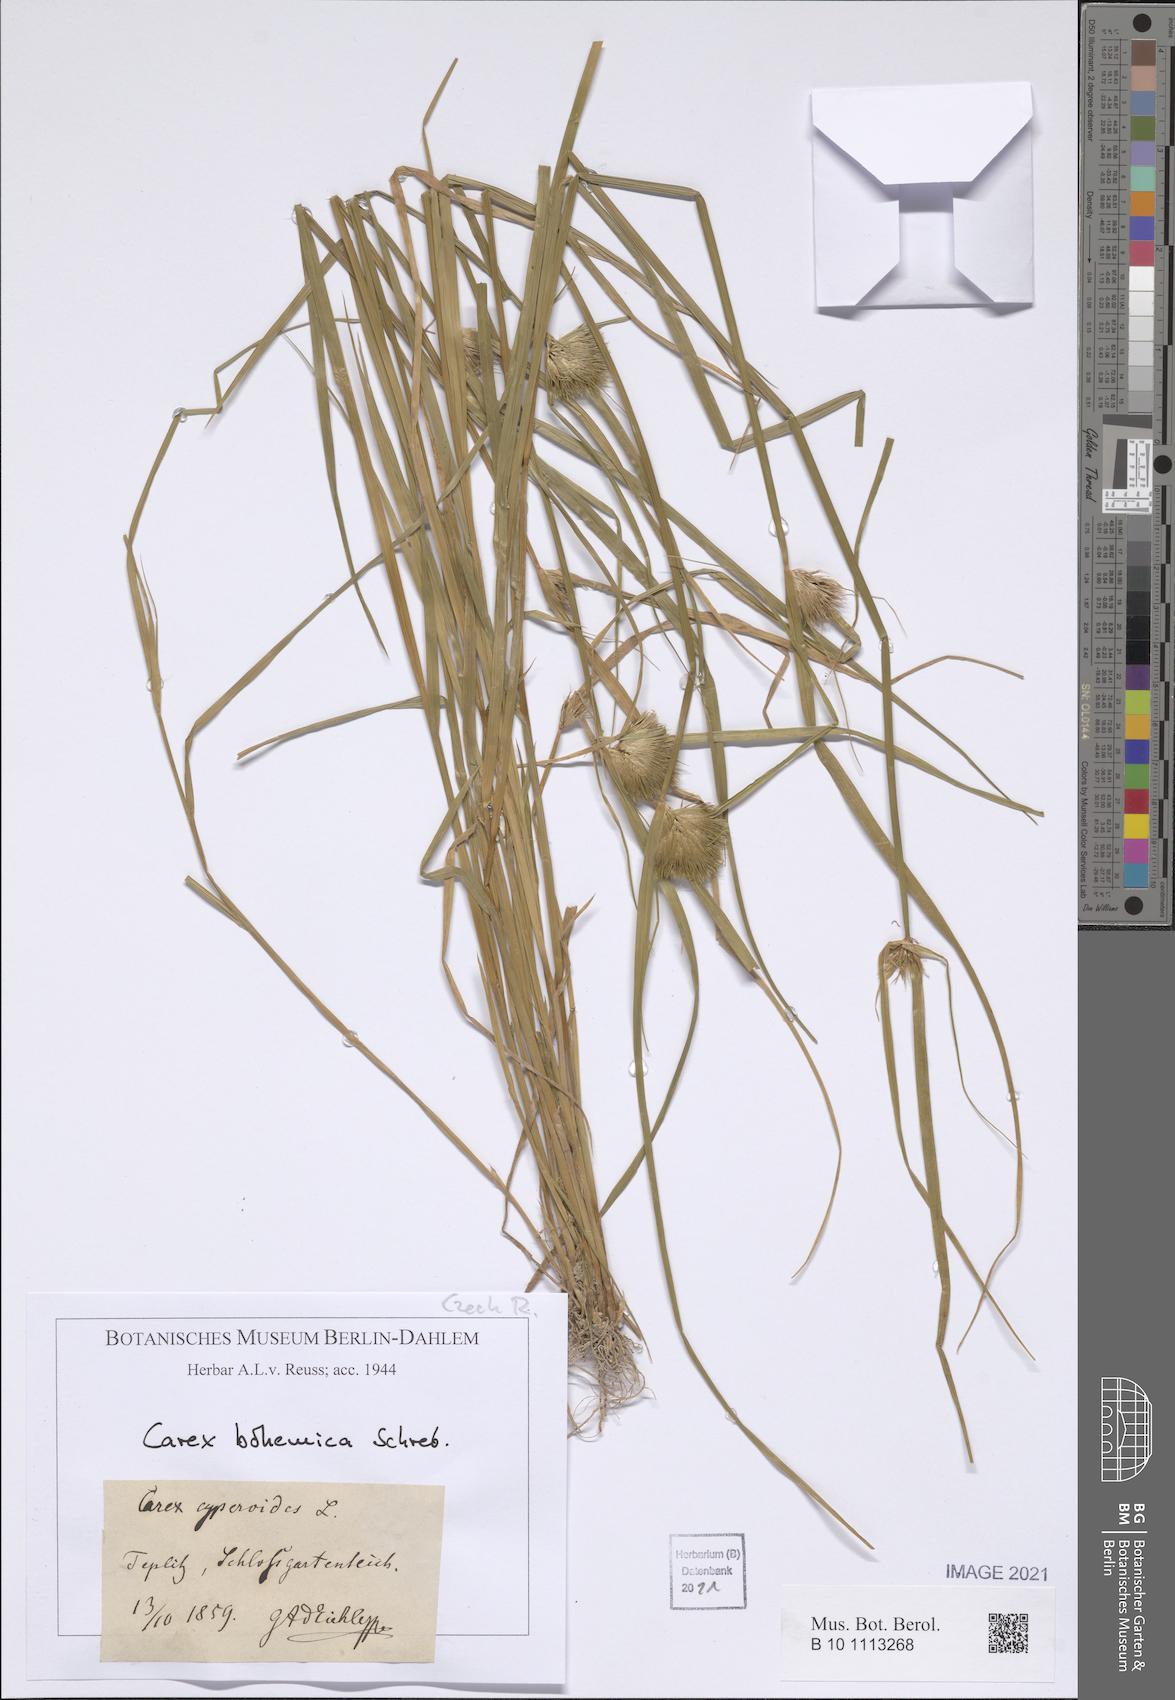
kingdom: Plantae
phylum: Tracheophyta
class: Liliopsida
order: Poales
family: Cyperaceae
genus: Carex
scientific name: Carex bohemica
